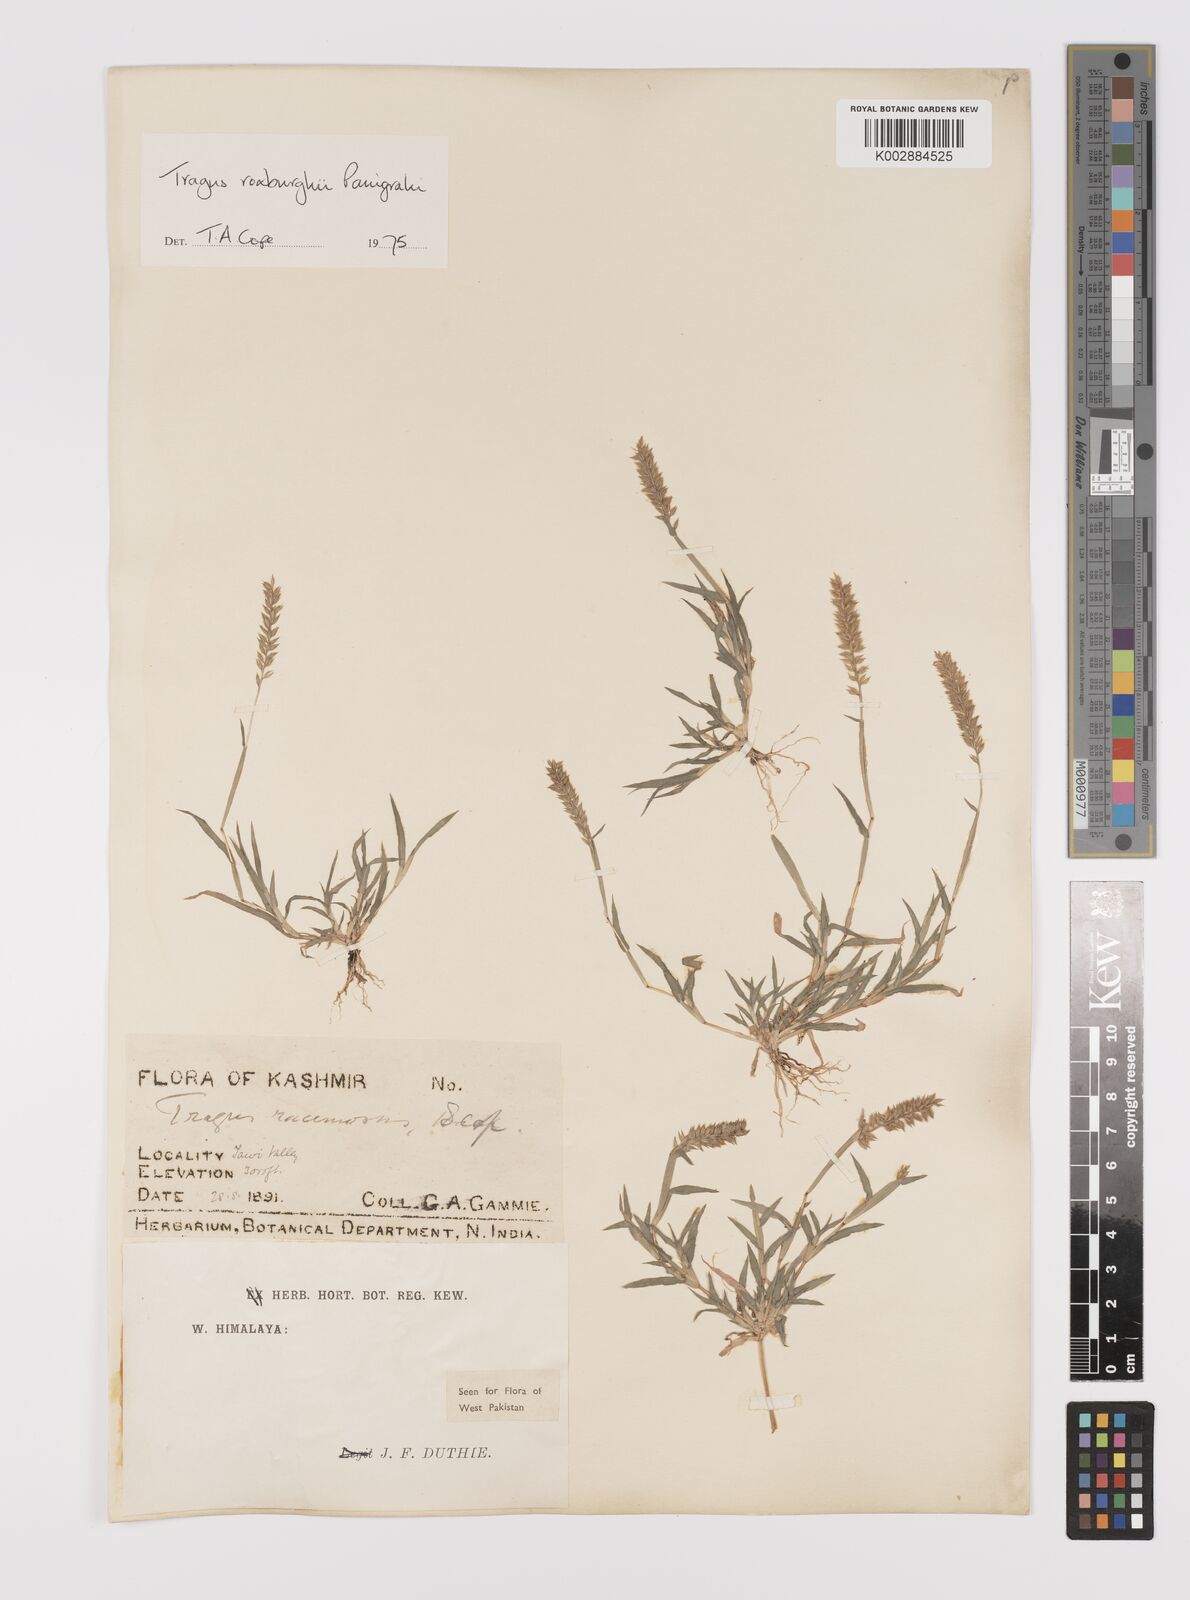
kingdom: Plantae
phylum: Tracheophyta
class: Liliopsida
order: Poales
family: Poaceae
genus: Tragus
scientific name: Tragus mongolorum
